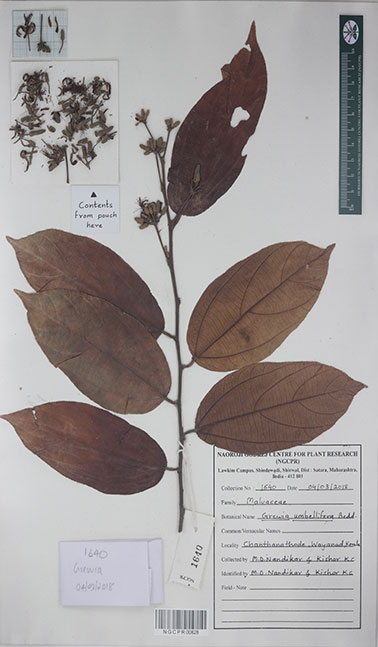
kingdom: Plantae
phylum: Tracheophyta
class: Magnoliopsida
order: Malvales
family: Malvaceae
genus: Grewia
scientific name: Grewia umbellifera
